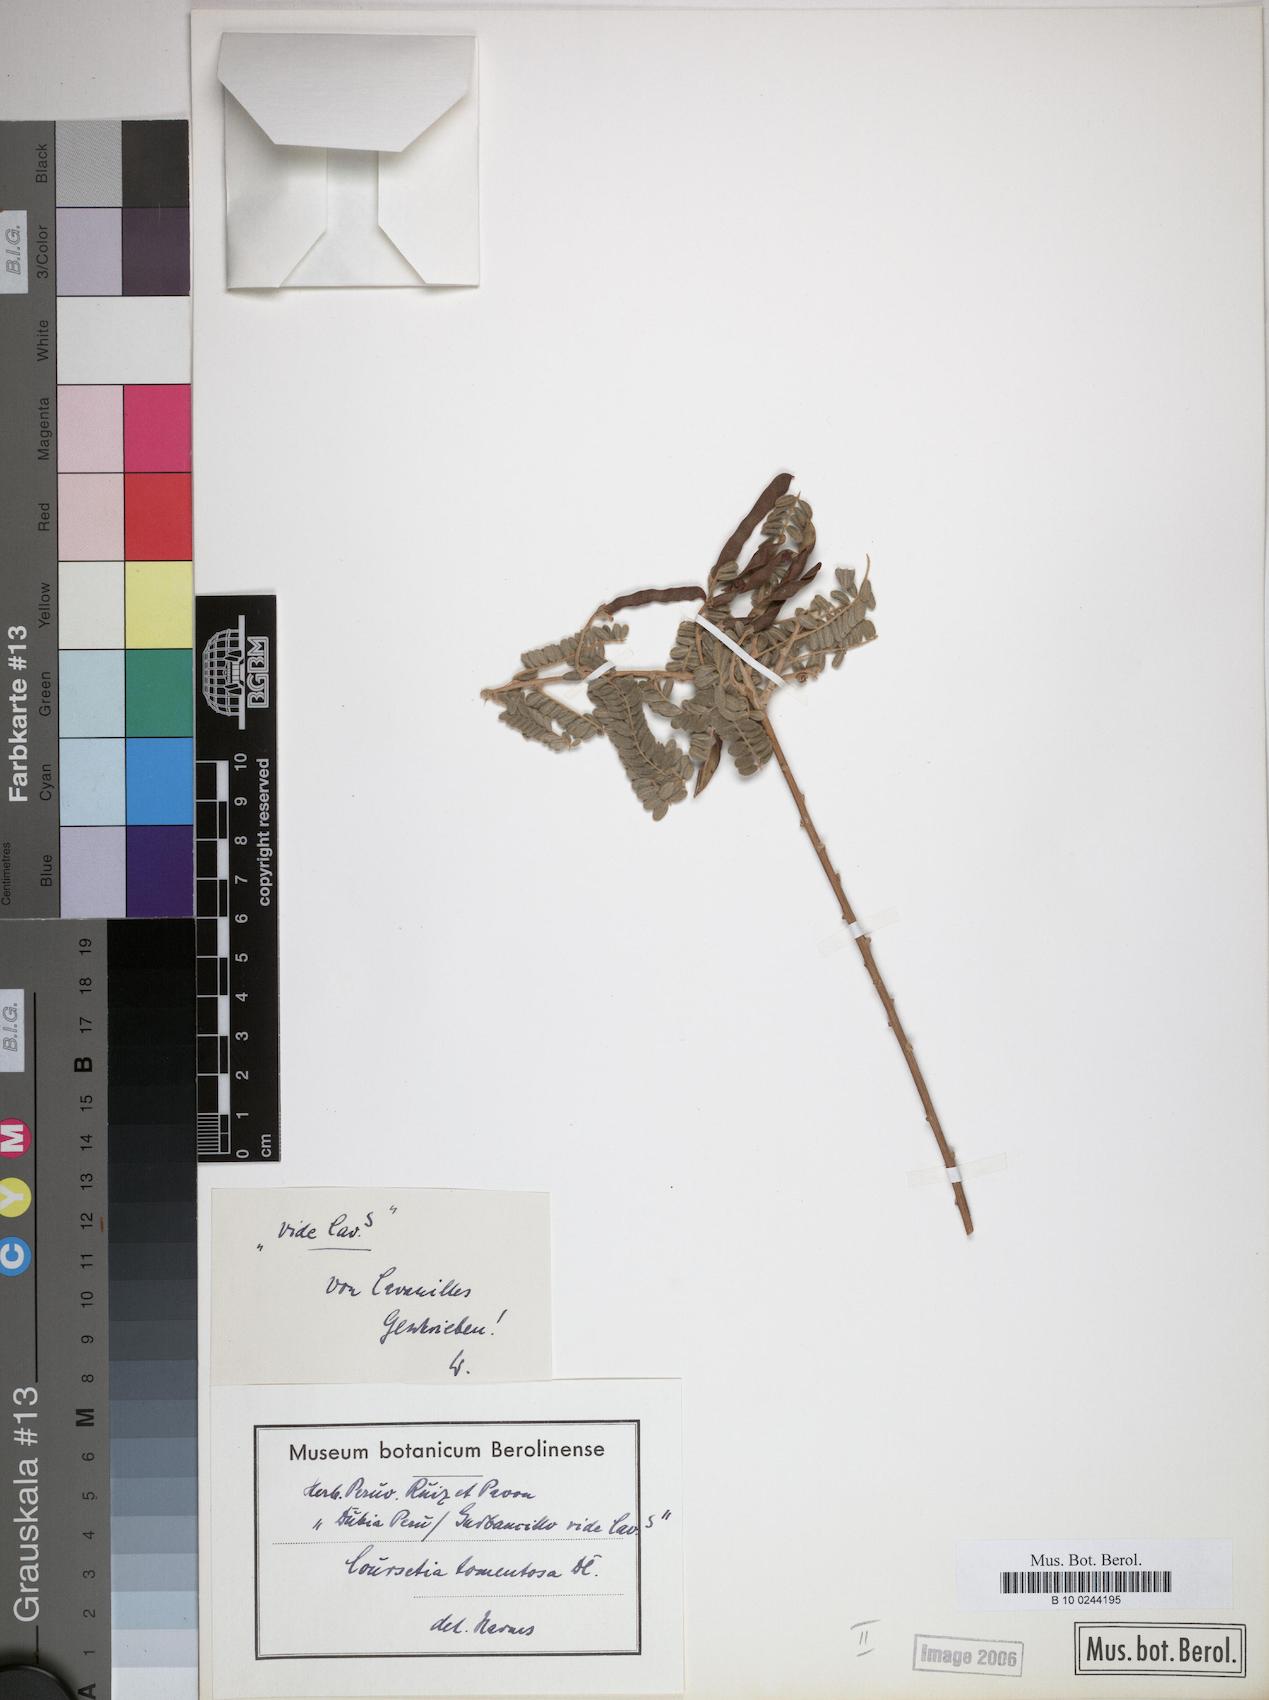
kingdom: Plantae
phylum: Tracheophyta
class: Magnoliopsida
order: Fabales
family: Fabaceae
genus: Coursetia
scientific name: Coursetia fruticosa
